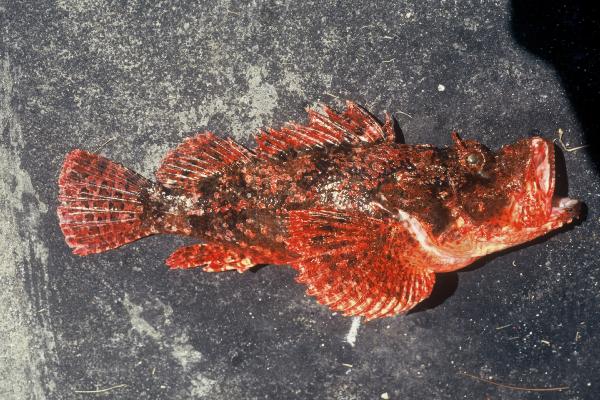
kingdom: Animalia
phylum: Chordata
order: Scorpaeniformes
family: Scorpaenidae
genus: Scorpaenopsis
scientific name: Scorpaenopsis oxycephala
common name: Smallscale scorpionfish
